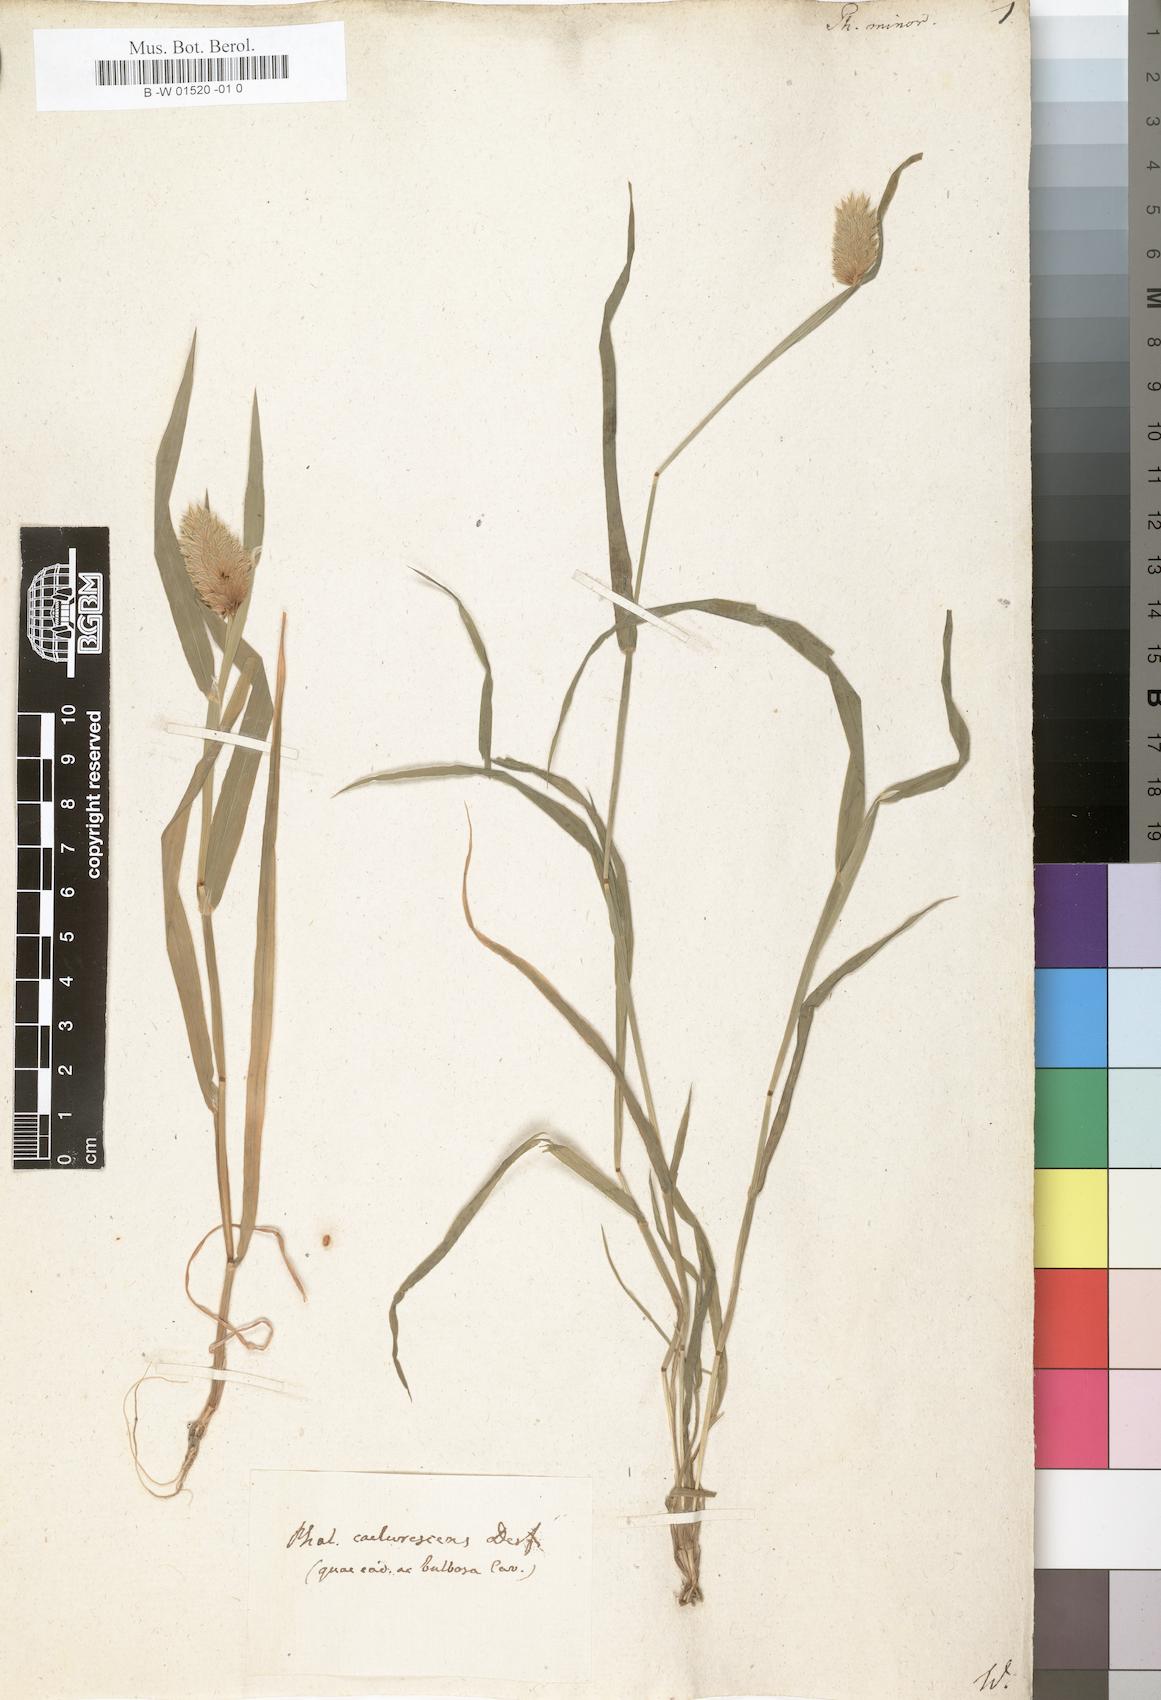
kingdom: Plantae
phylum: Tracheophyta
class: Liliopsida
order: Poales
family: Poaceae
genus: Phalaris
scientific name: Phalaris minor
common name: Littleseed canarygrass
